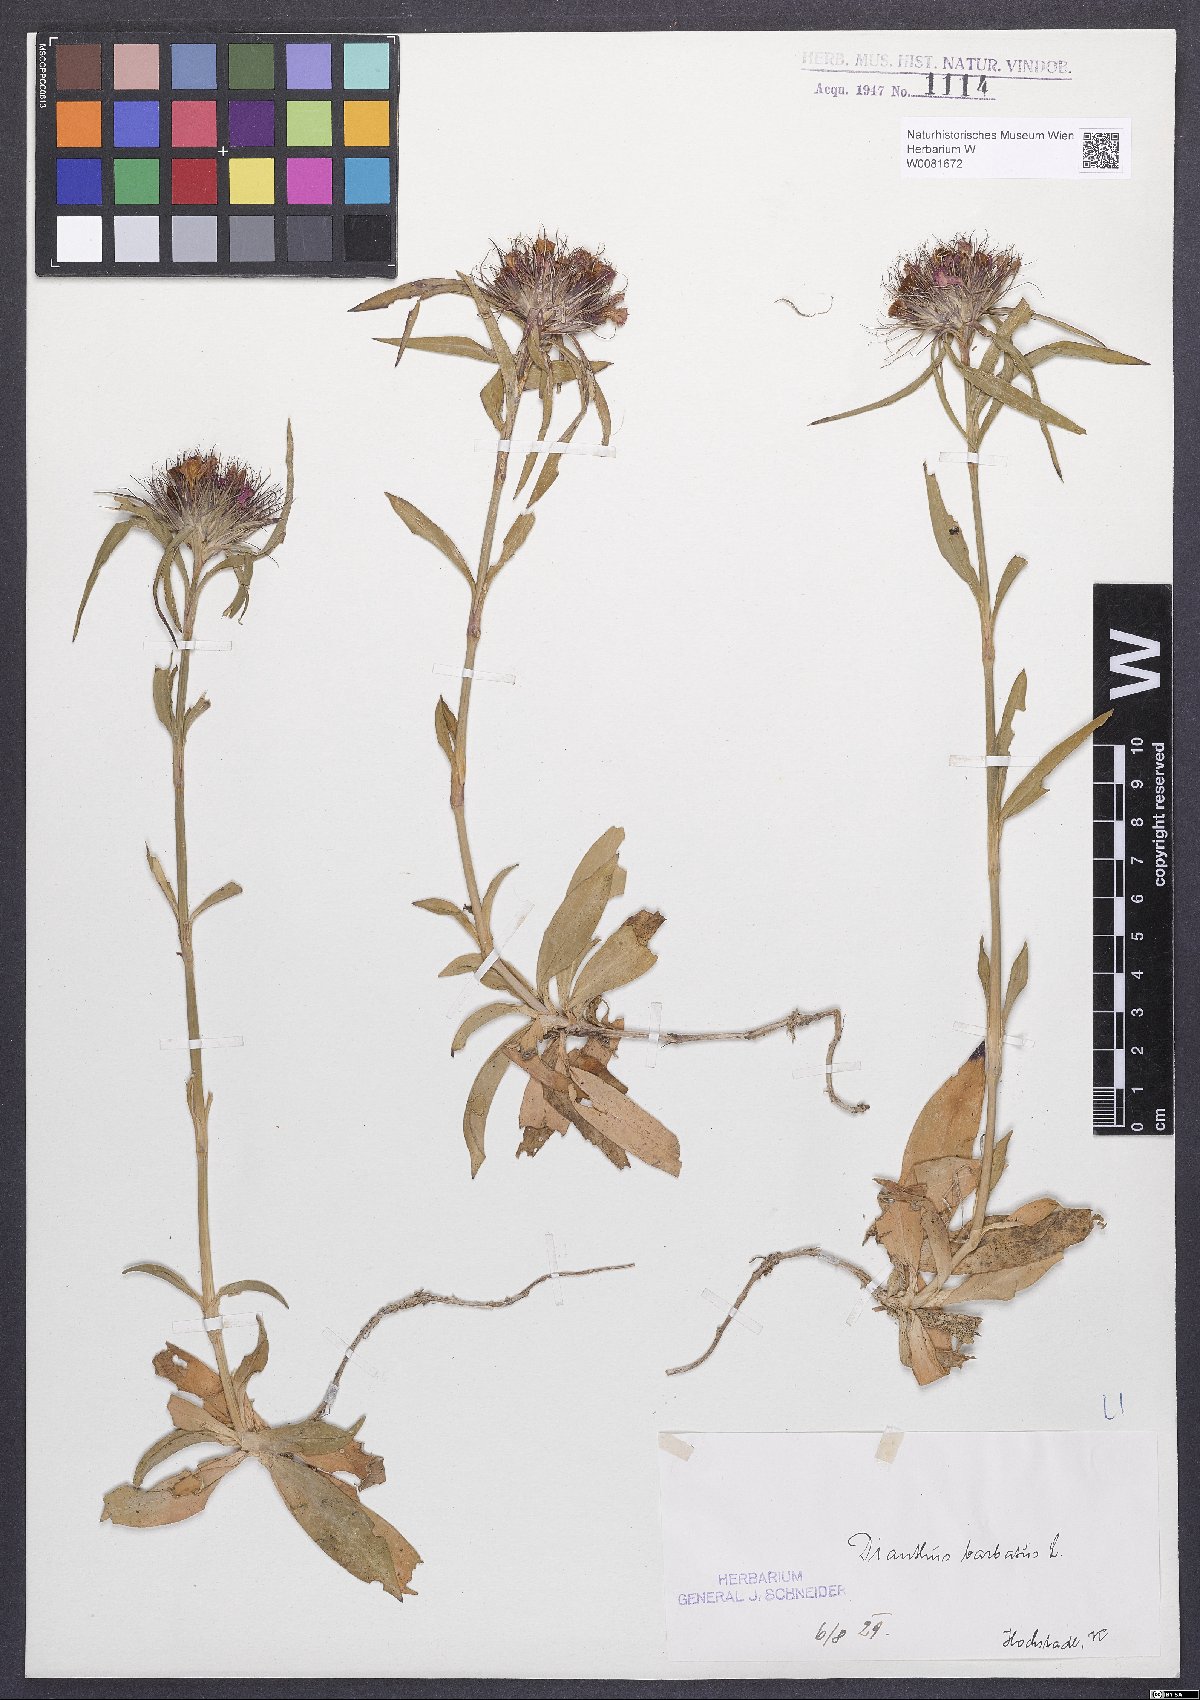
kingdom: Plantae
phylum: Tracheophyta
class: Magnoliopsida
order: Caryophyllales
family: Caryophyllaceae
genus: Dianthus
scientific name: Dianthus barbatus
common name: Sweet-william
